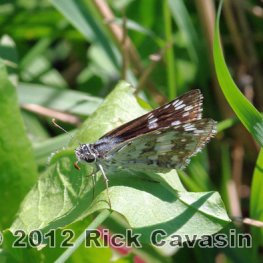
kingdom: Animalia
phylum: Arthropoda
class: Insecta
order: Lepidoptera
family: Hesperiidae
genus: Pyrgus
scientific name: Pyrgus communis
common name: Common Checkered-Skipper
